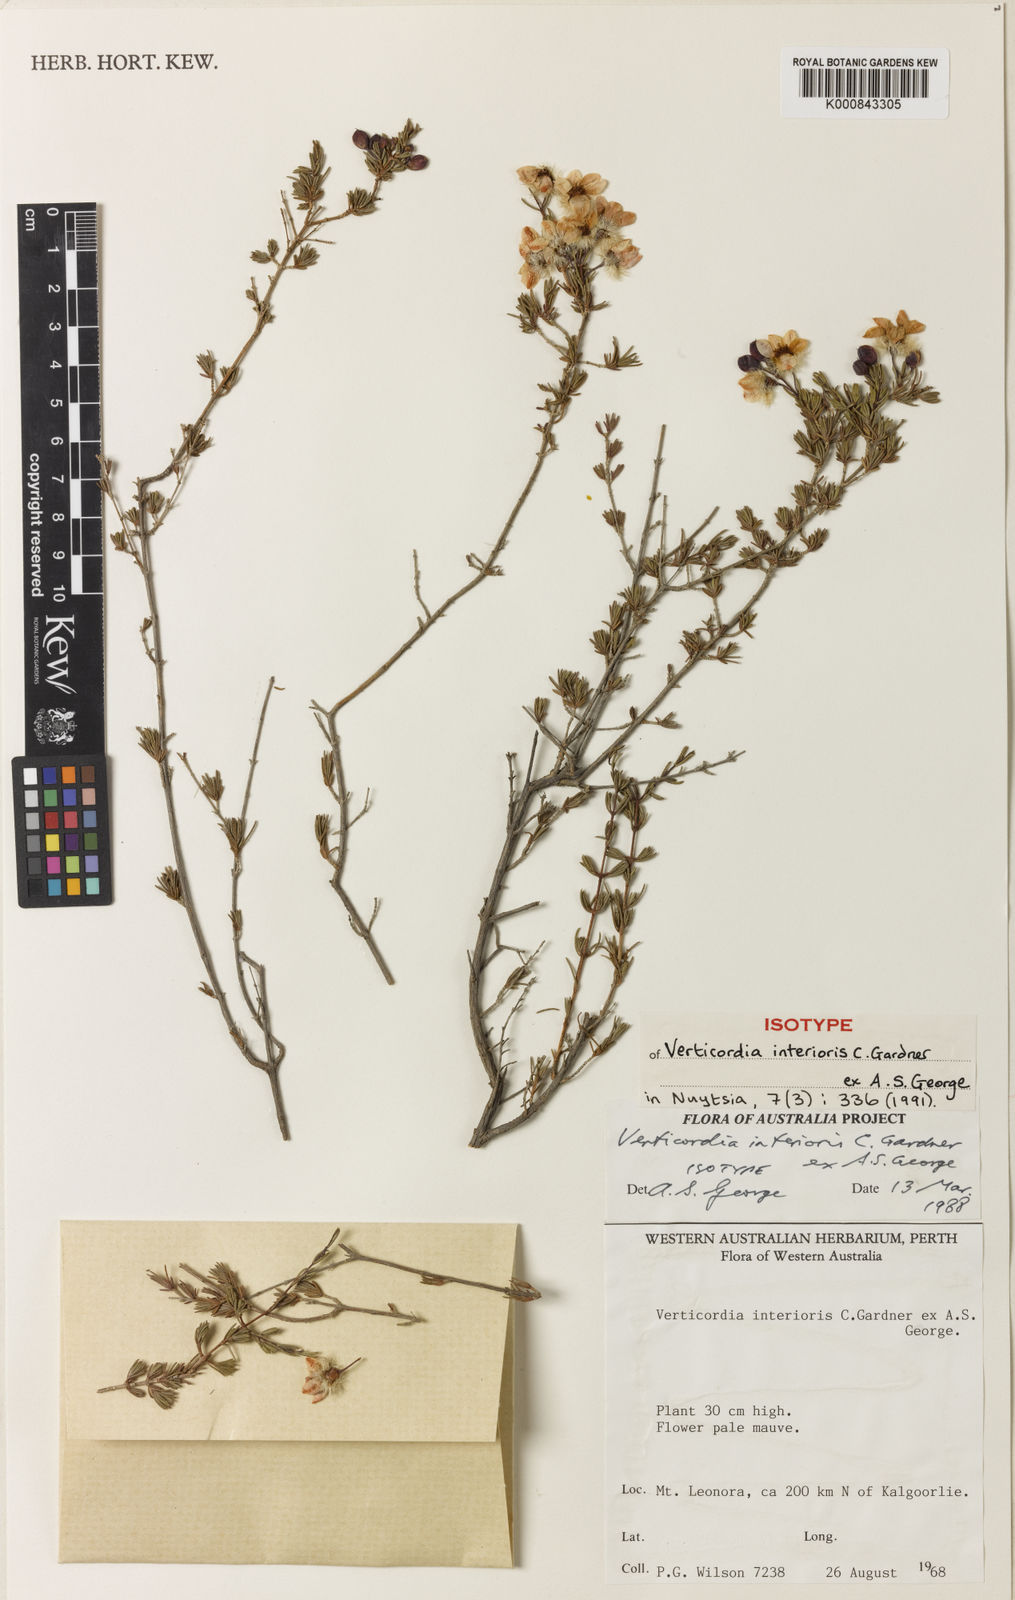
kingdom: Plantae
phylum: Tracheophyta
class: Magnoliopsida
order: Myrtales
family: Myrtaceae
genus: Verticordia
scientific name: Verticordia interioris
